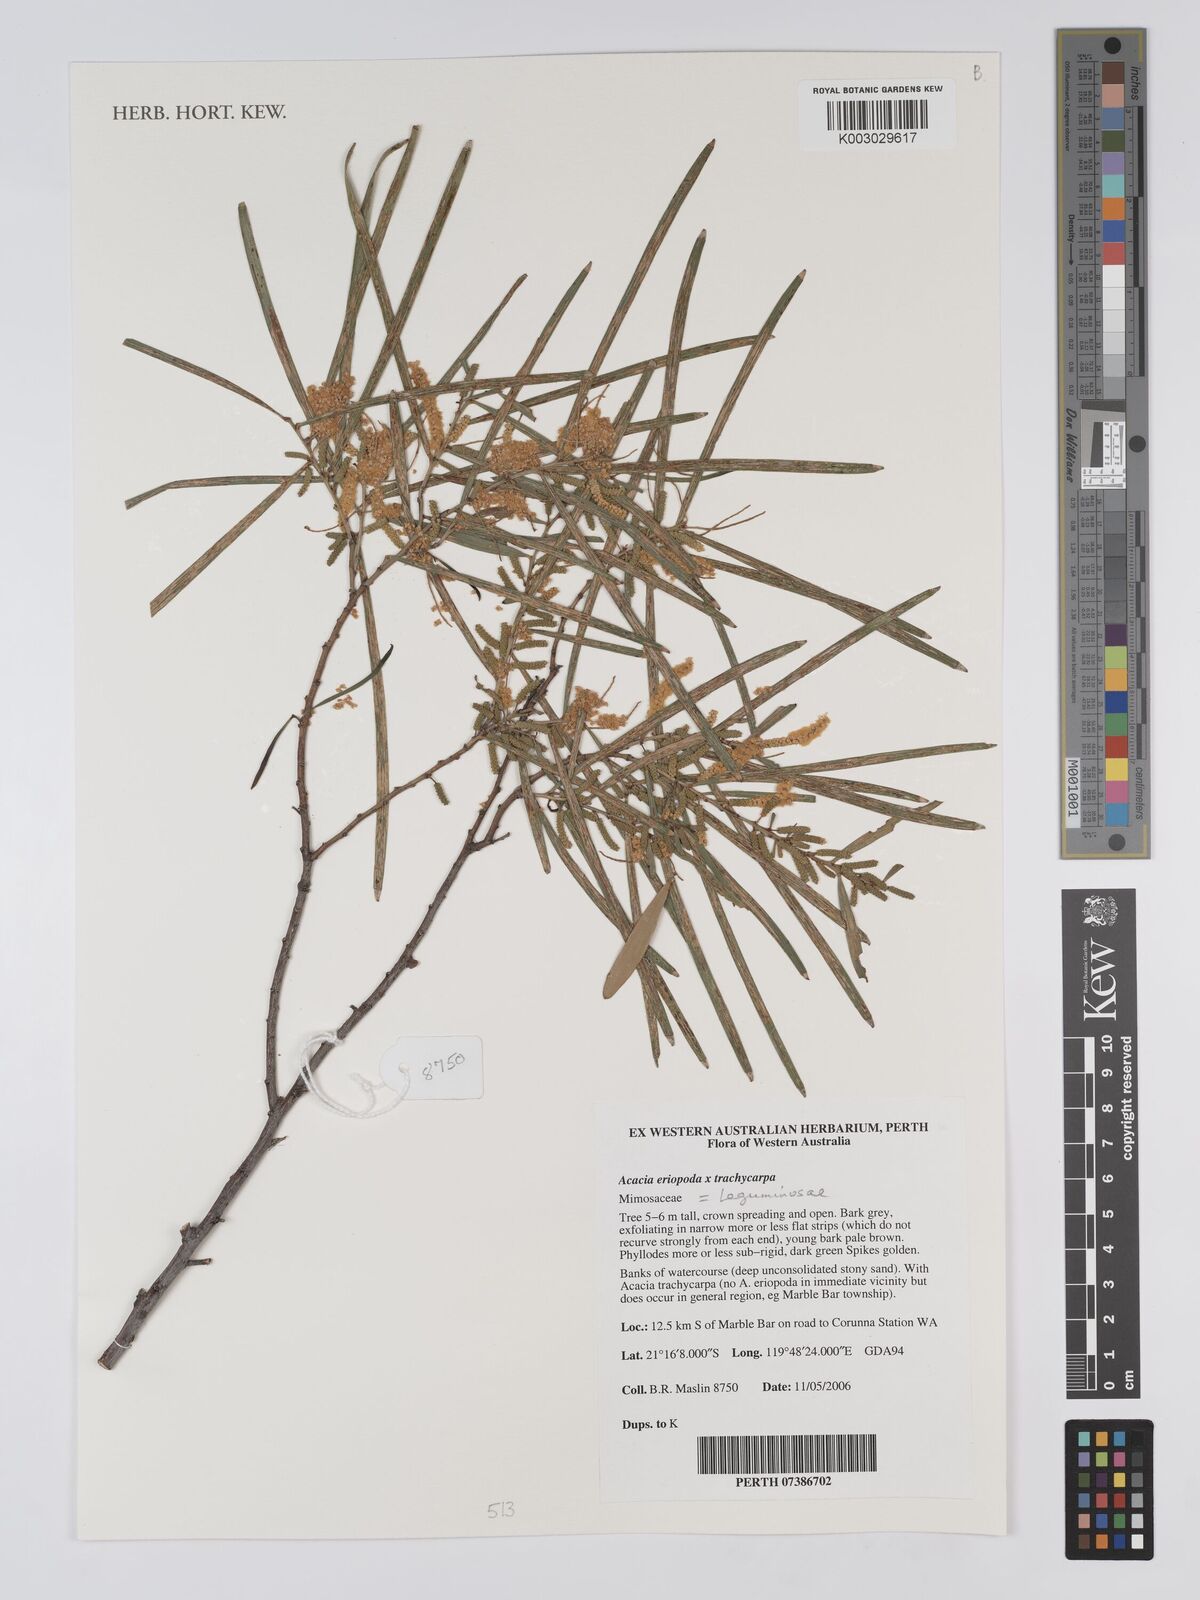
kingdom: Plantae
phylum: Tracheophyta
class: Magnoliopsida
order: Fabales
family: Fabaceae
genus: Acacia
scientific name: Acacia eriopoda
